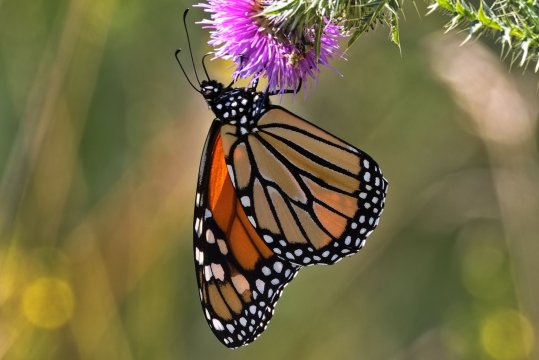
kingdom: Animalia
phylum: Arthropoda
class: Insecta
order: Lepidoptera
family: Nymphalidae
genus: Danaus
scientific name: Danaus plexippus
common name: Monarch
